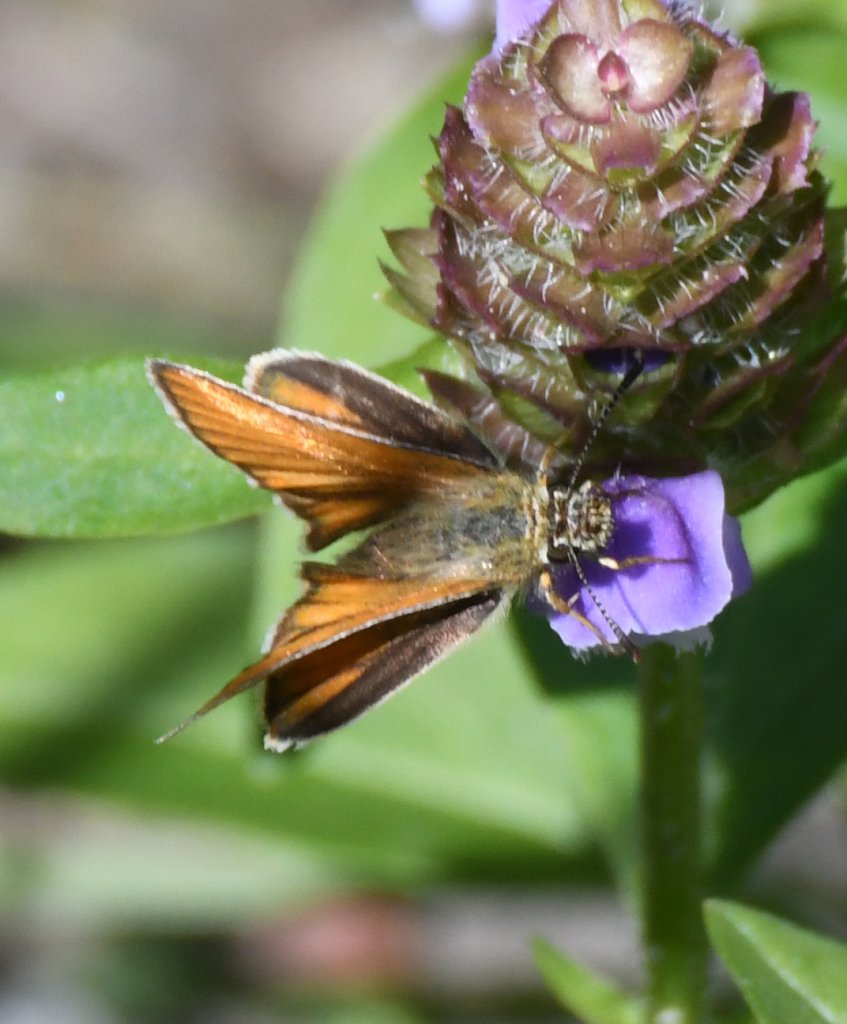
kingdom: Animalia
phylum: Arthropoda
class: Insecta
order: Lepidoptera
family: Hesperiidae
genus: Thymelicus
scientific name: Thymelicus lineola
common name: European Skipper
